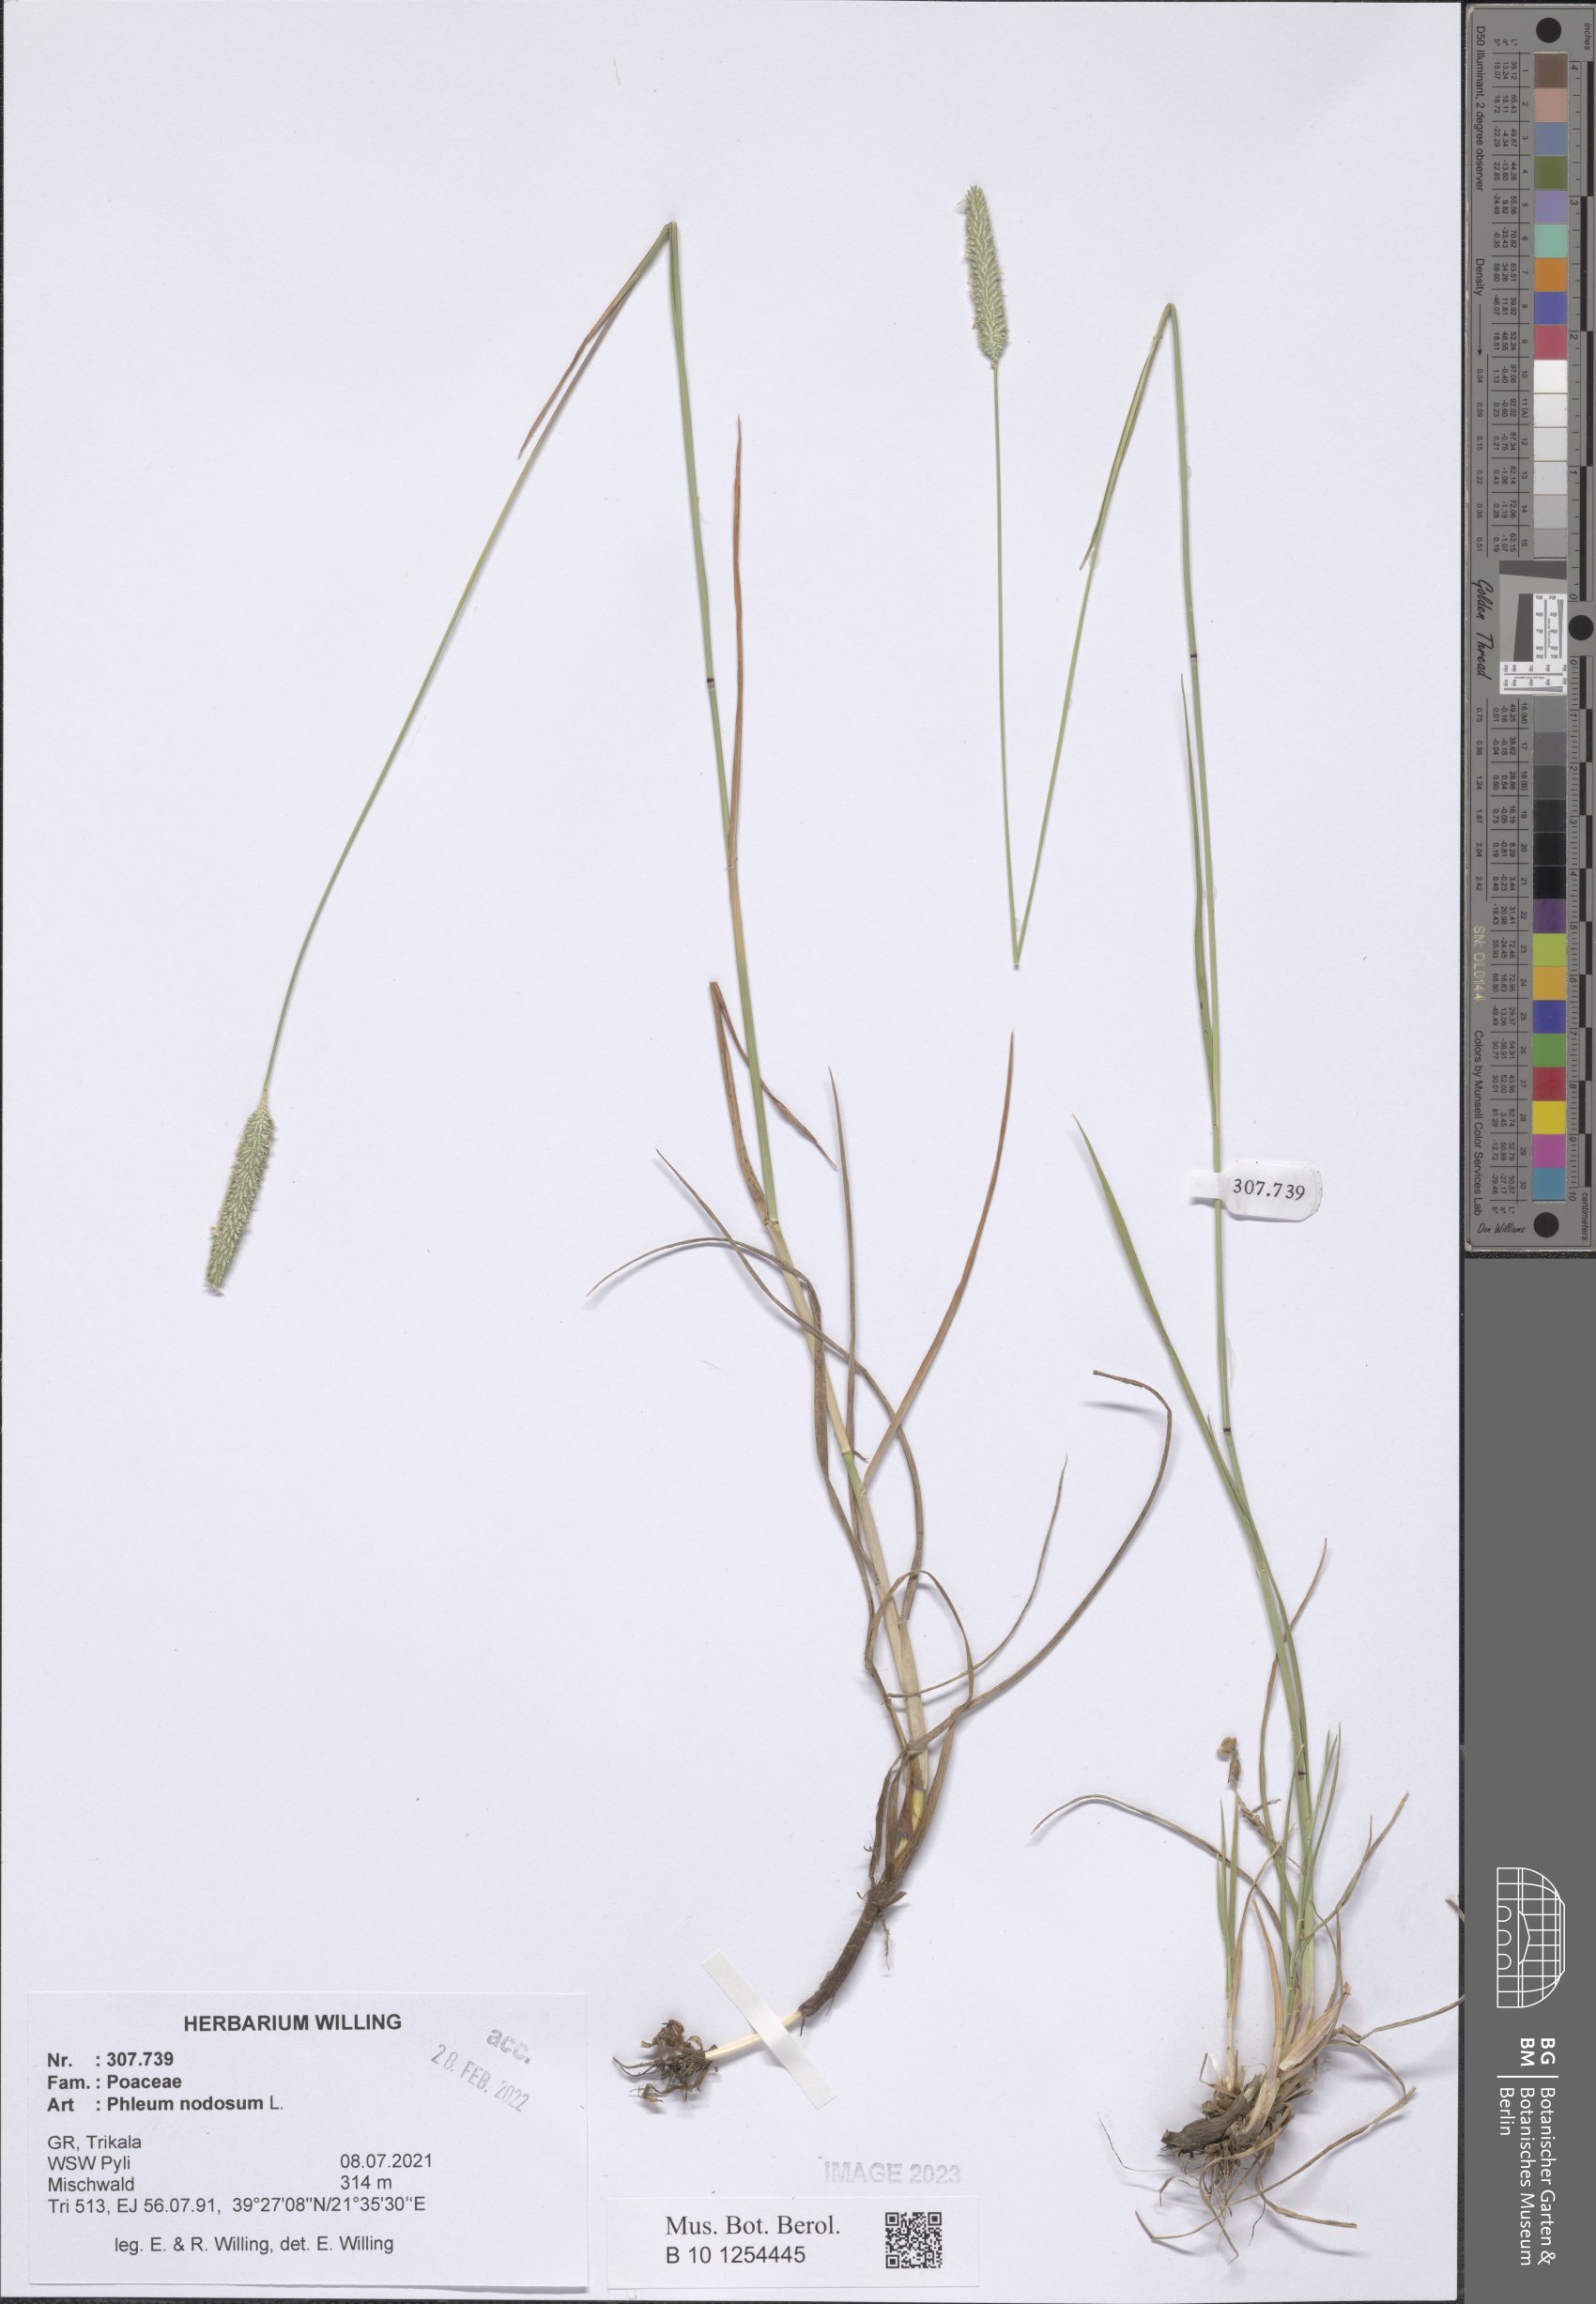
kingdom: Plantae
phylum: Tracheophyta
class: Liliopsida
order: Poales
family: Poaceae
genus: Phleum
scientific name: Phleum pratense
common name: Timothy grass
